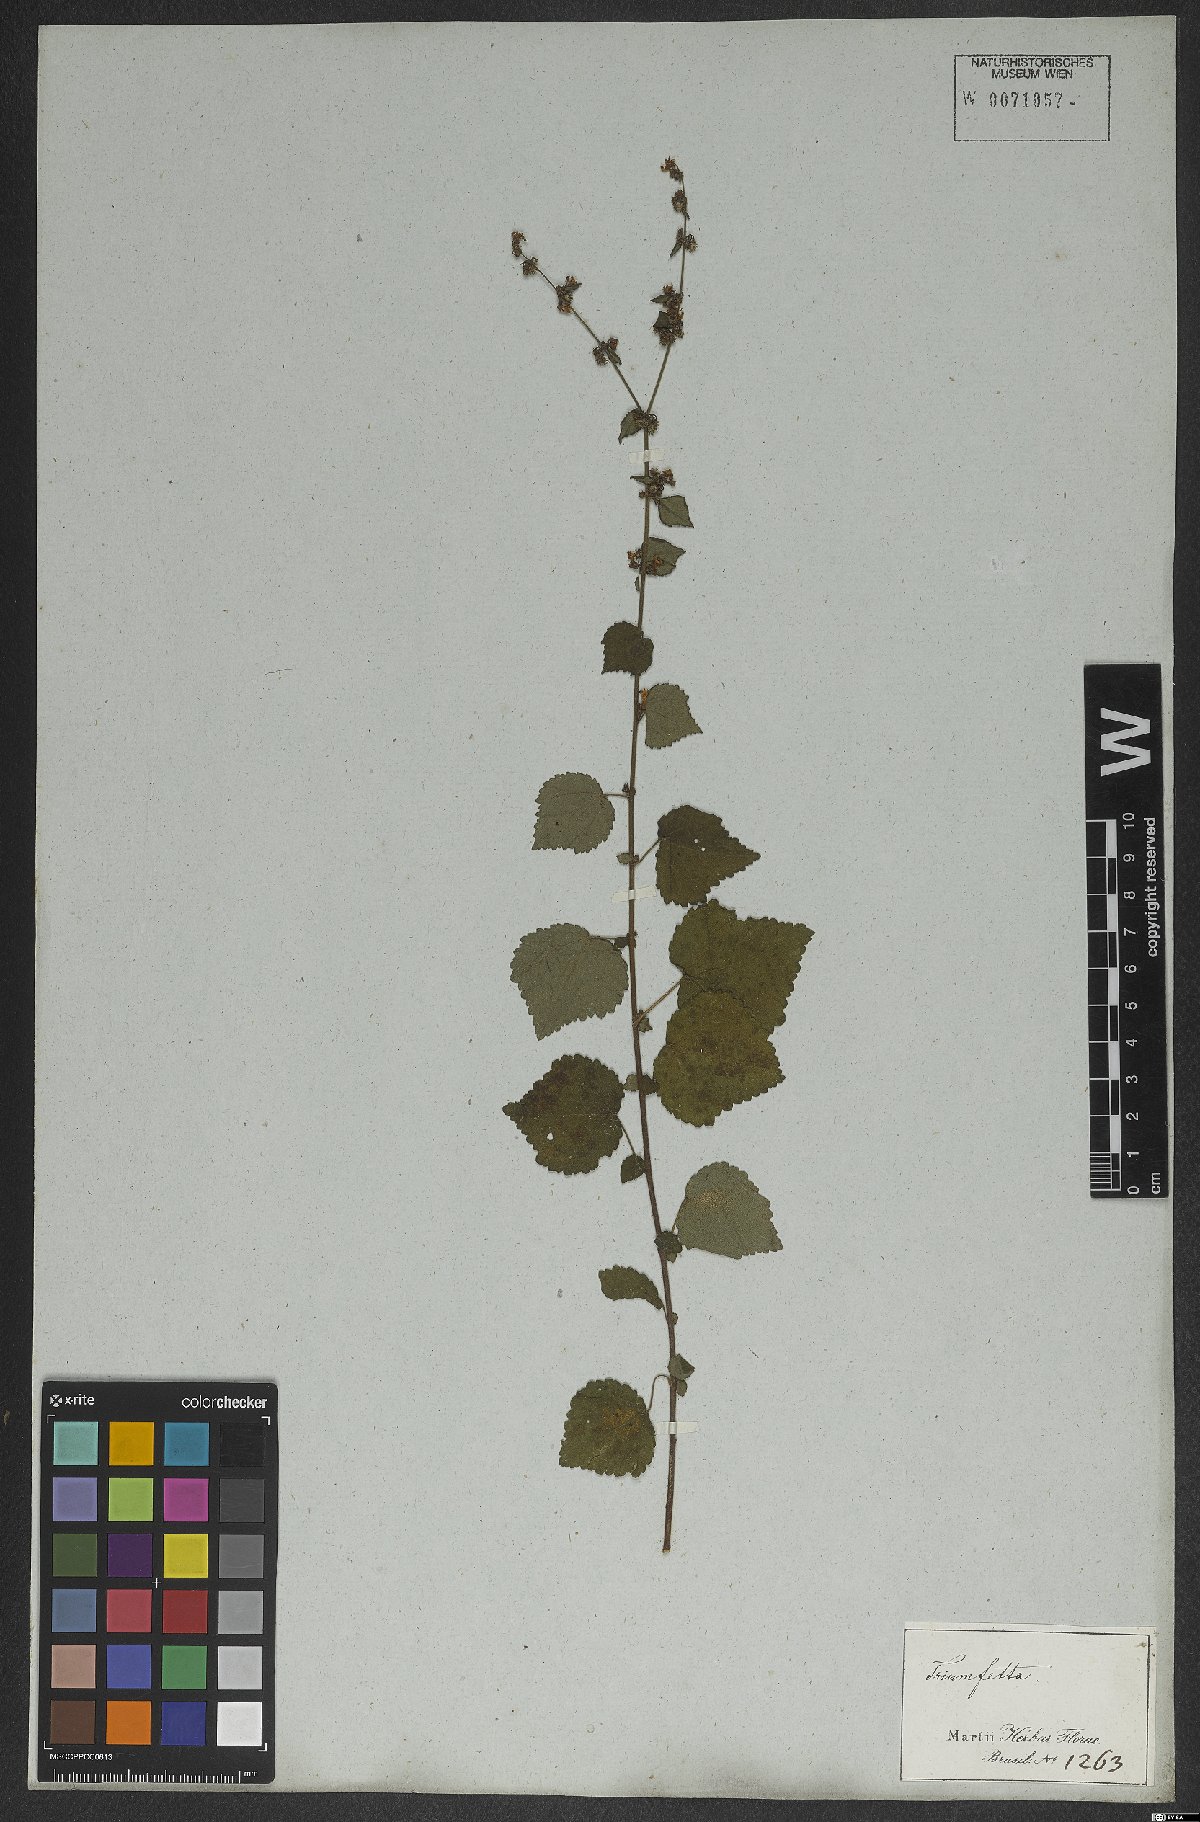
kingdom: Plantae
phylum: Tracheophyta
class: Magnoliopsida
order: Malvales
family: Malvaceae
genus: Triumfetta
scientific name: Triumfetta rhomboidea
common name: Diamond burbark
